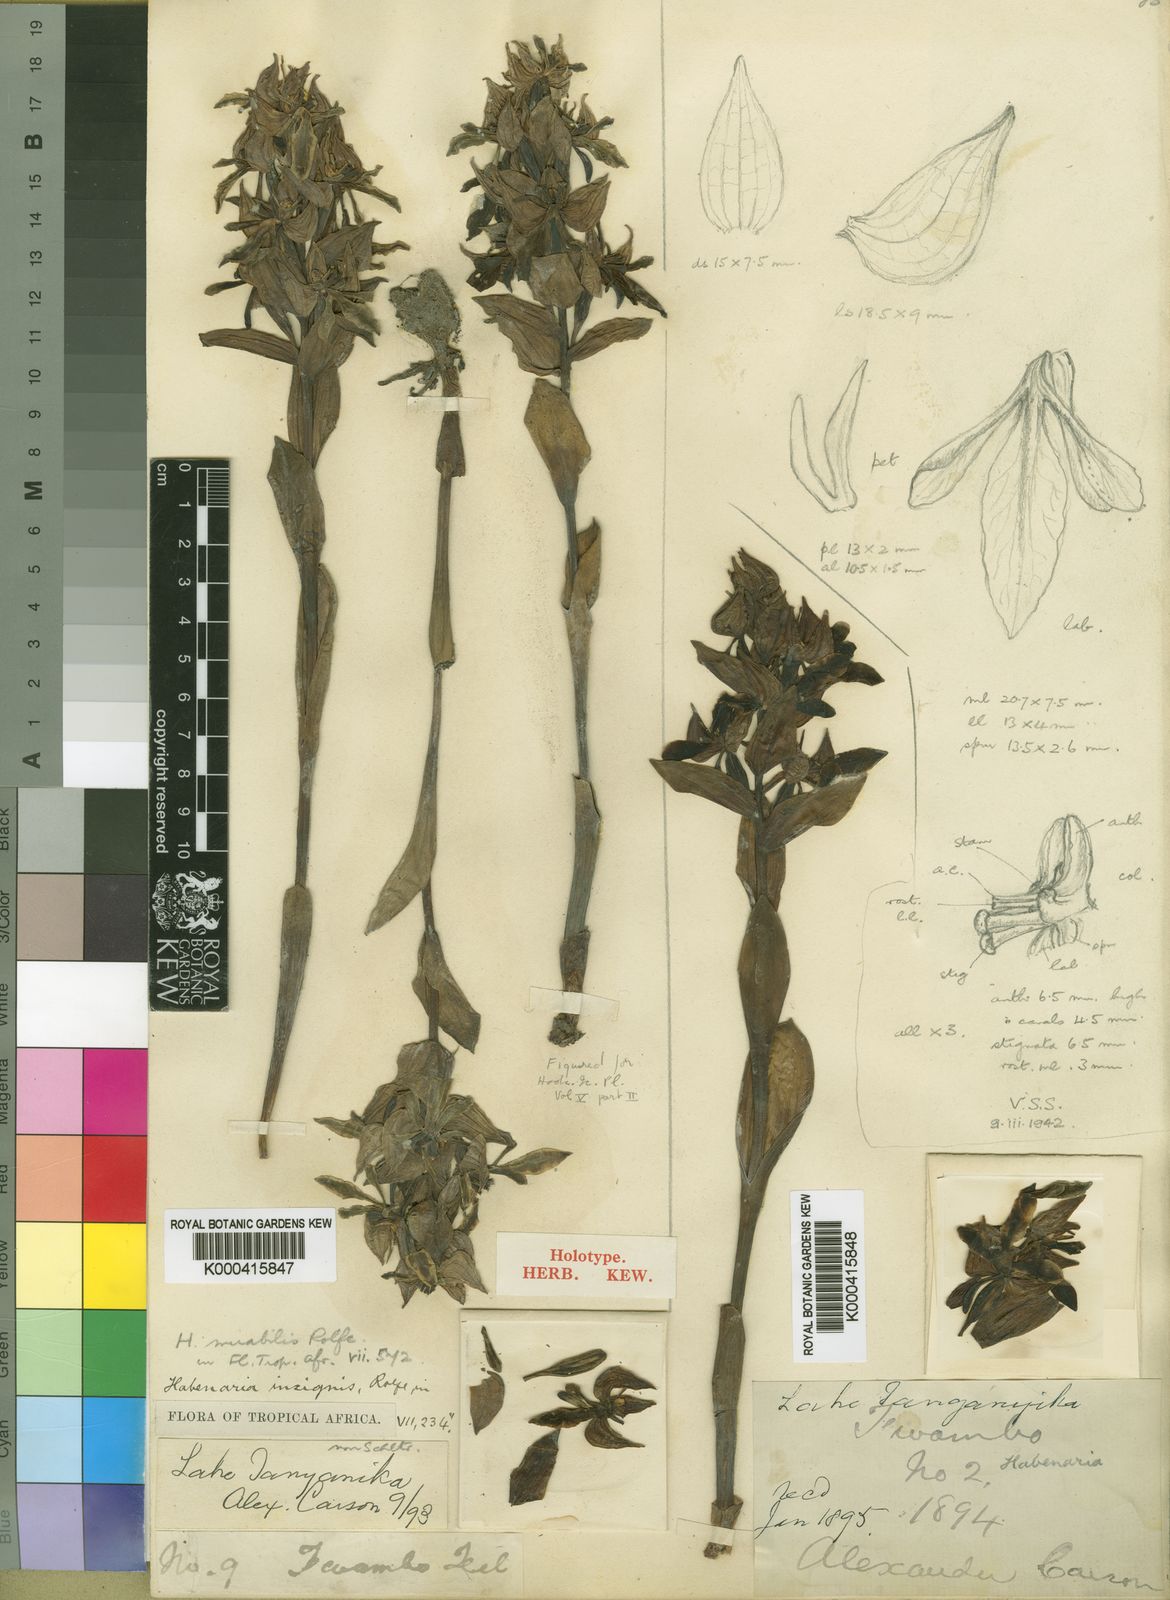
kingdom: Plantae
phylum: Tracheophyta
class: Liliopsida
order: Asparagales
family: Orchidaceae
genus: Habenaria
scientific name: Habenaria mirabilis
